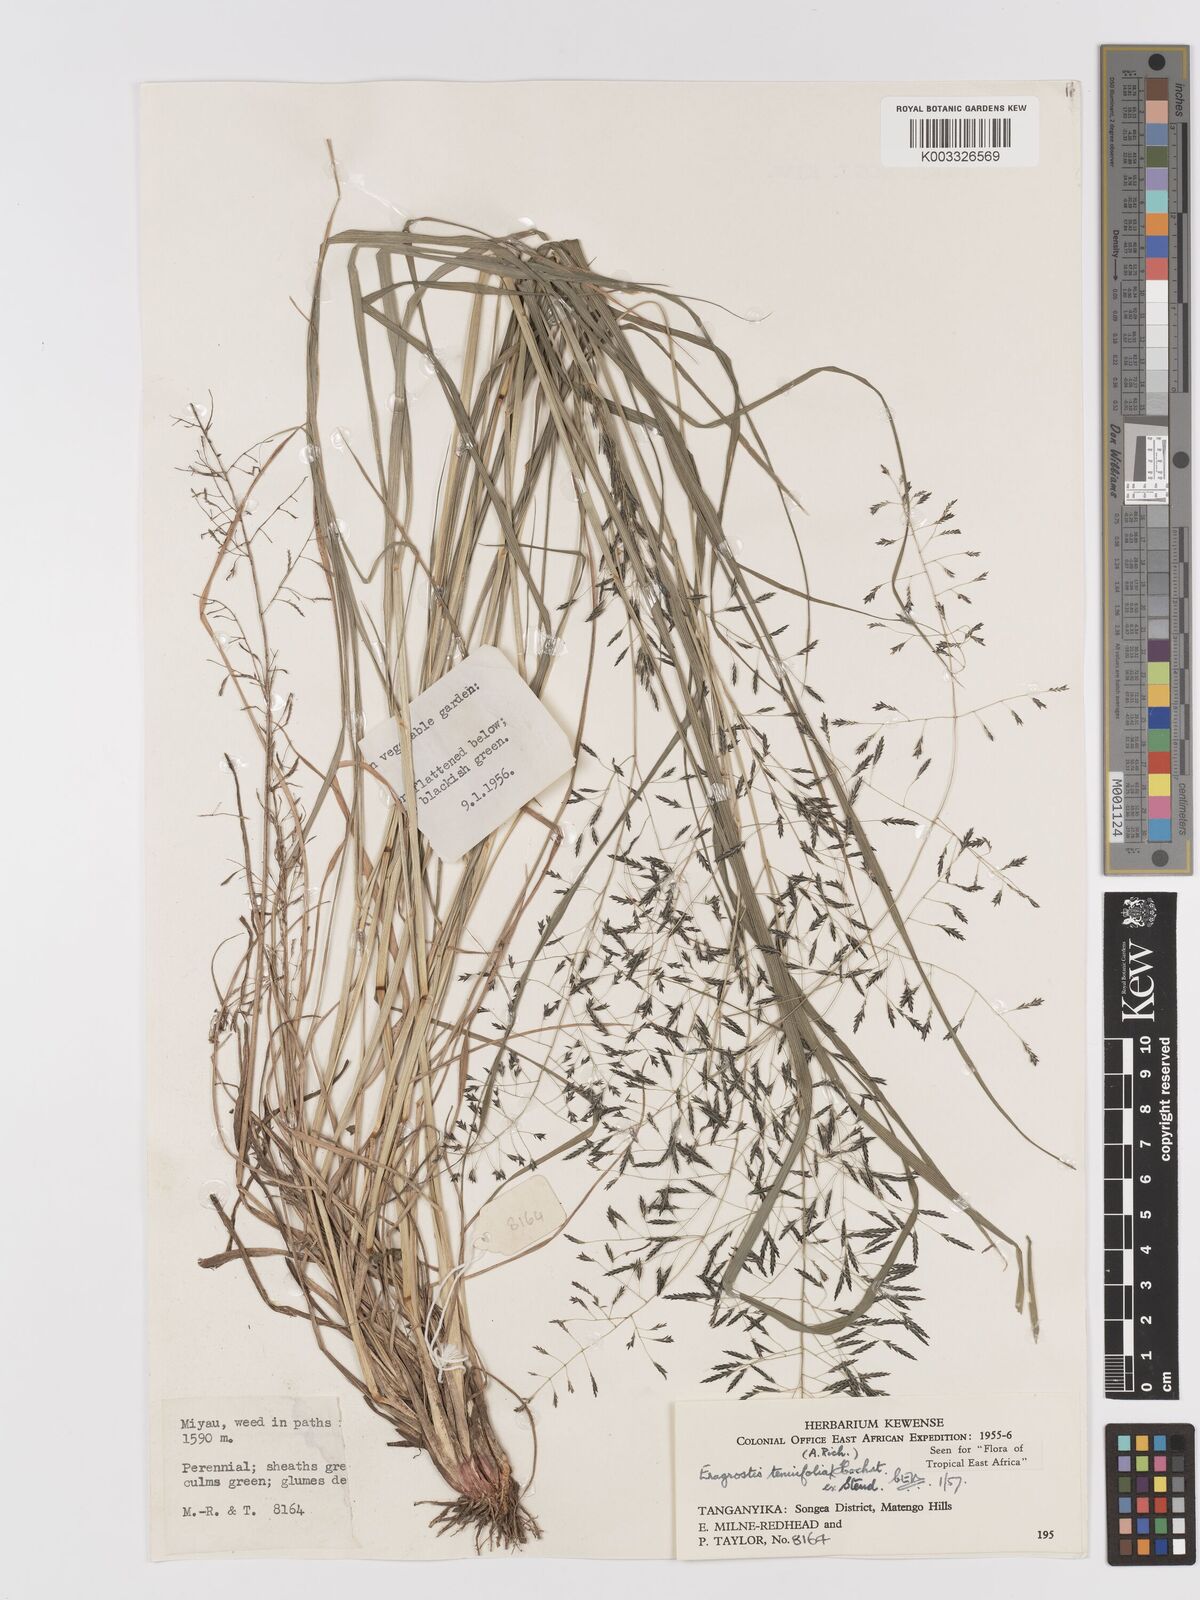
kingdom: Plantae
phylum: Tracheophyta
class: Liliopsida
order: Poales
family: Poaceae
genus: Eragrostis
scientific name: Eragrostis tenuifolia
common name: Elastic grass
